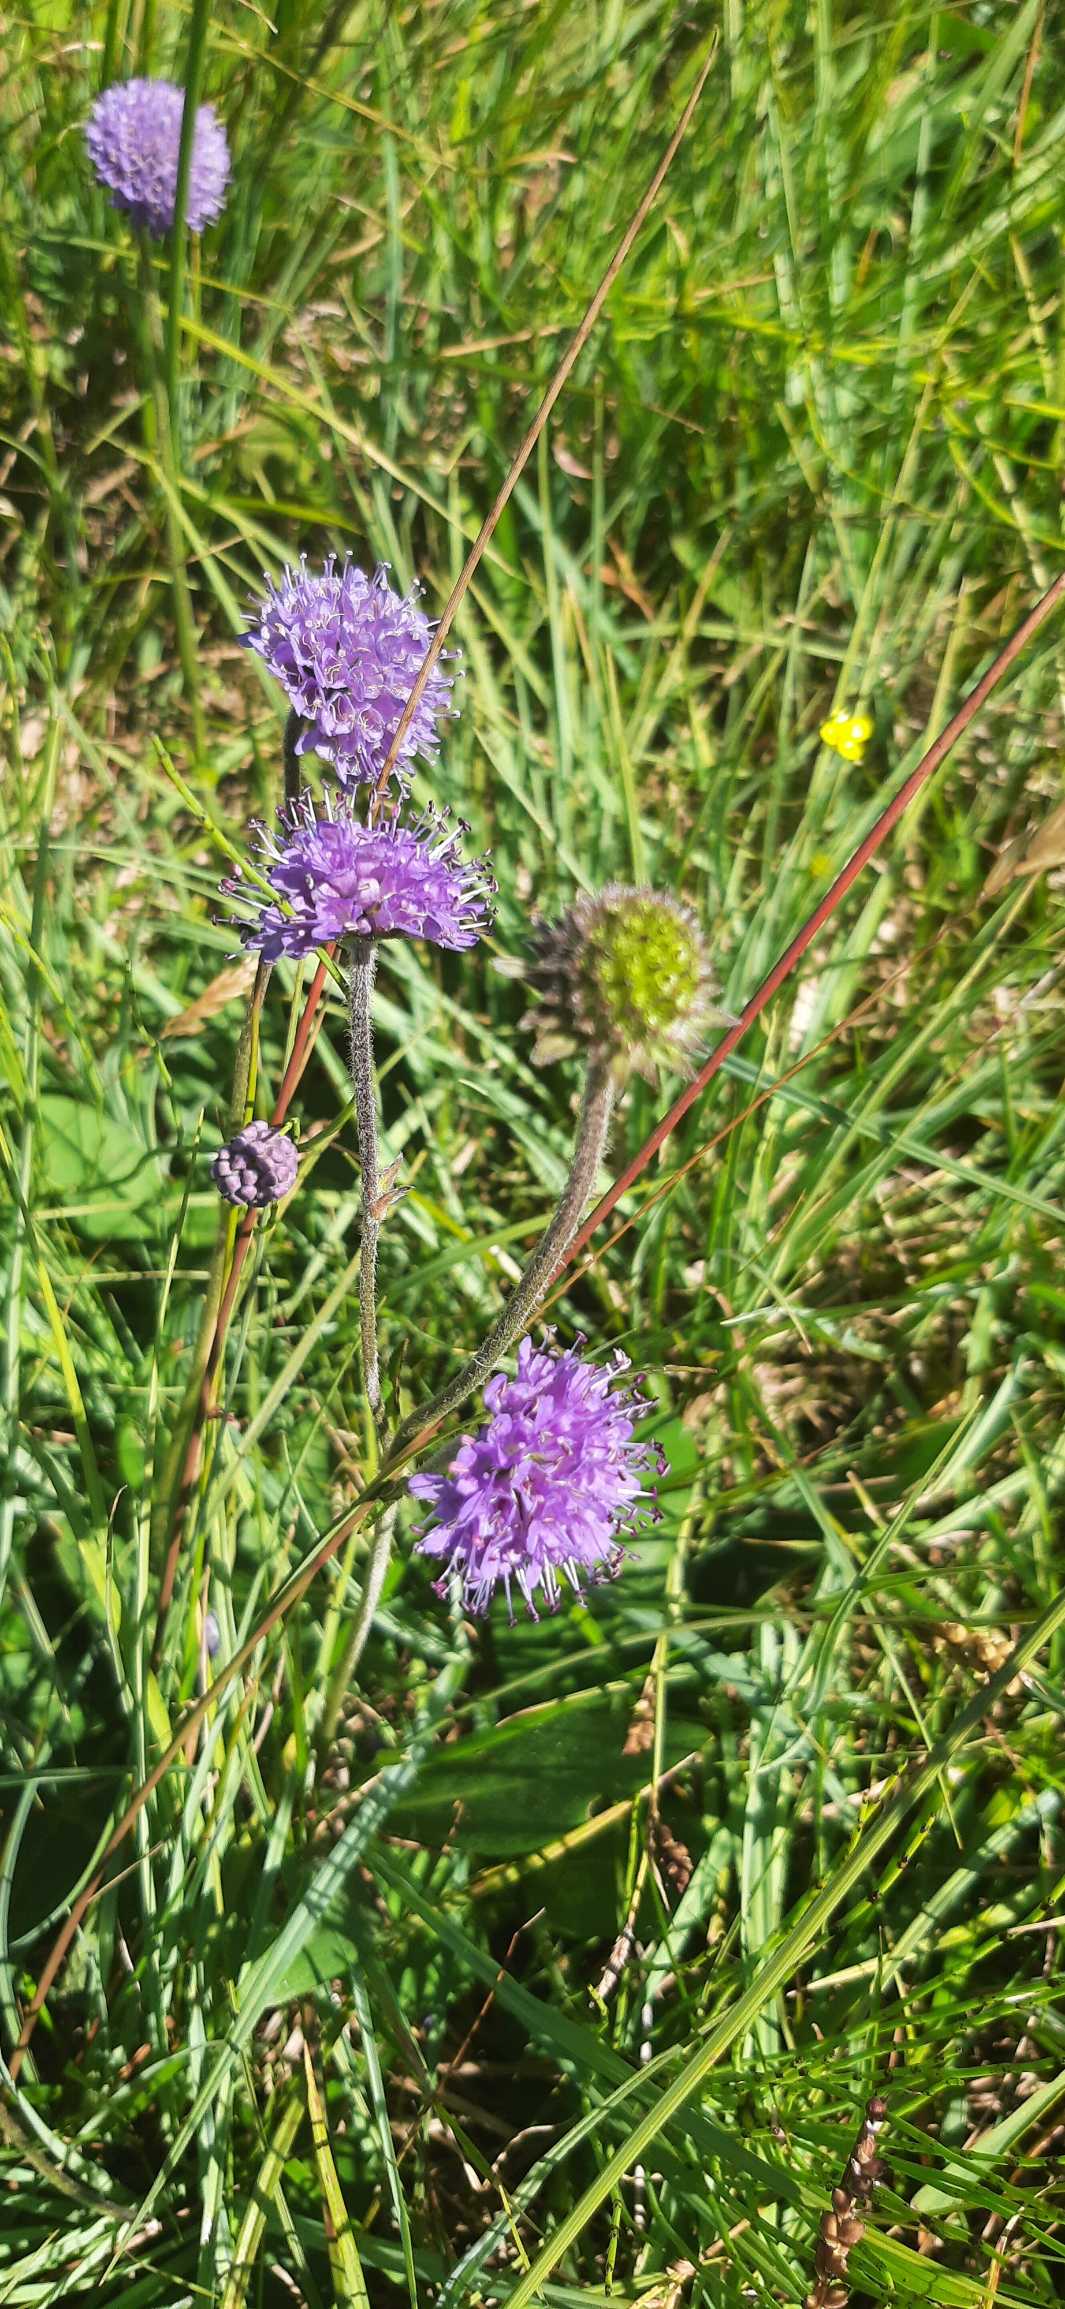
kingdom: Plantae
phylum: Tracheophyta
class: Magnoliopsida
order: Dipsacales
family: Caprifoliaceae
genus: Succisa
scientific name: Succisa pratensis
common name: Djævelsbid
